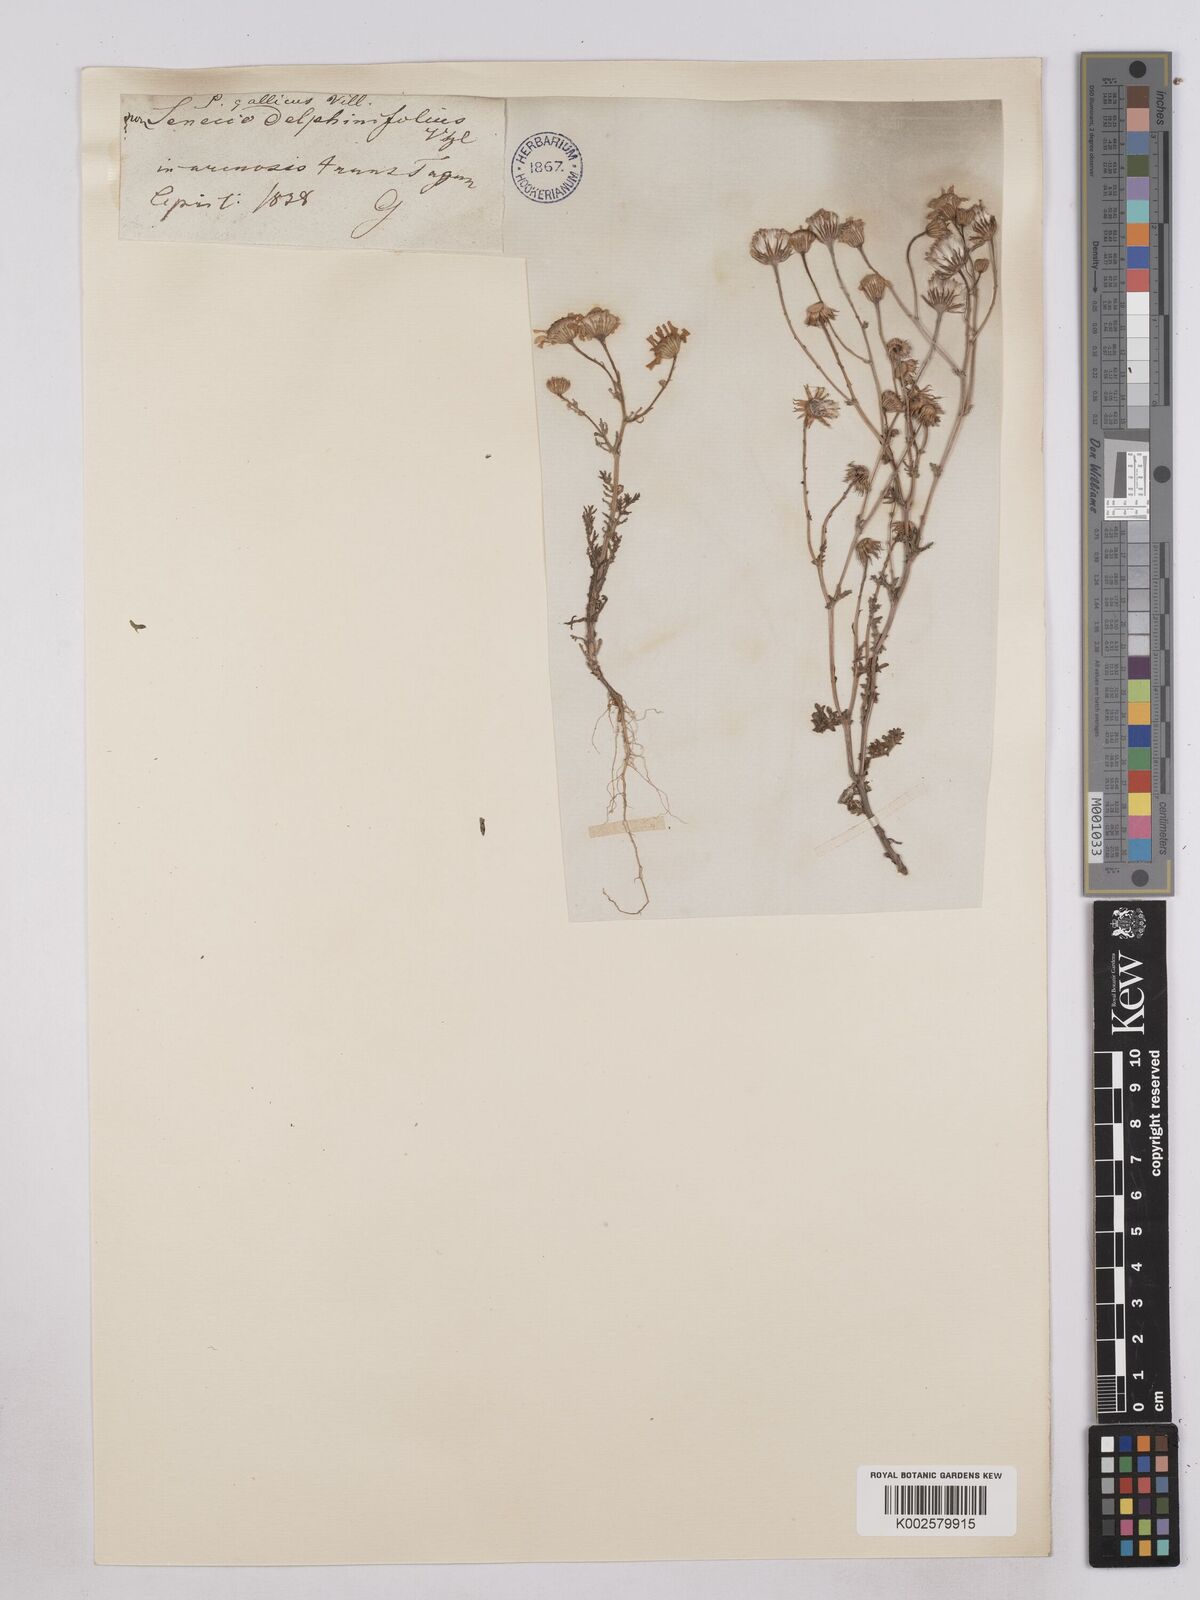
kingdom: Plantae
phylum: Tracheophyta
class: Magnoliopsida
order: Asterales
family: Asteraceae
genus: Senecio
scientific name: Senecio gallicus
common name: French groundsel
